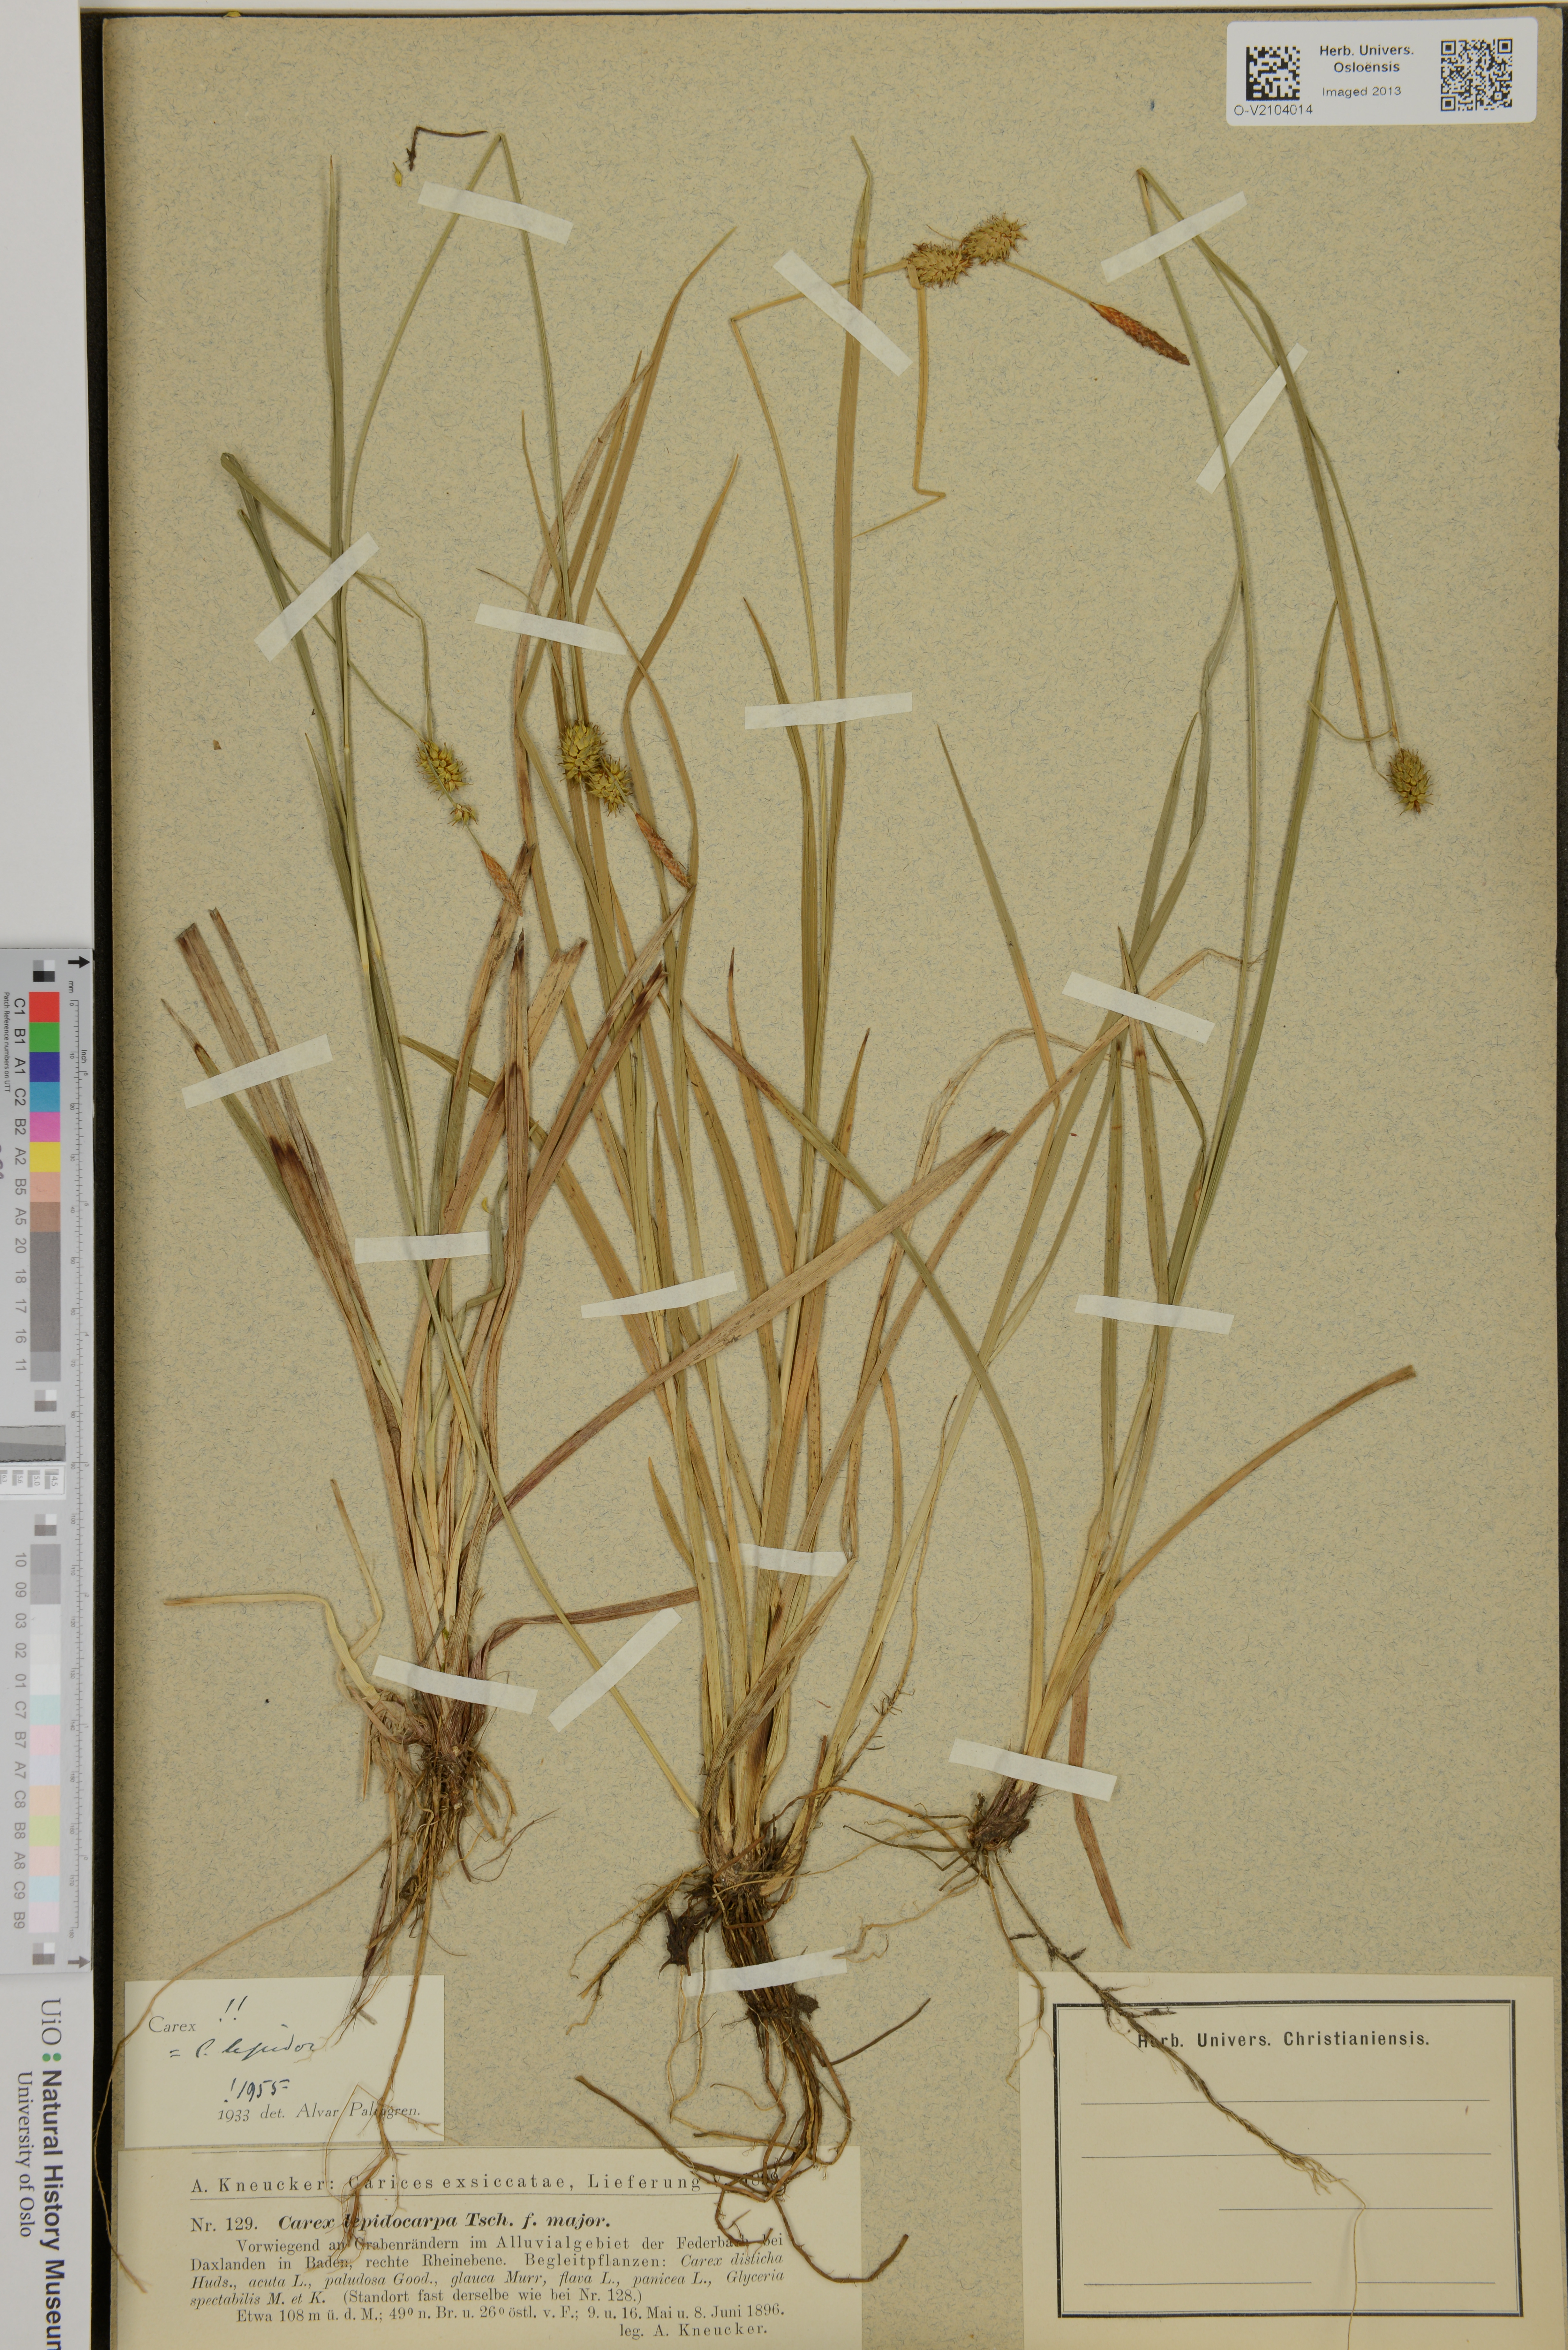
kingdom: Plantae
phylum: Tracheophyta
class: Liliopsida
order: Poales
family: Cyperaceae
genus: Carex
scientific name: Carex lepidocarpa
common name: Long-stalked yellow-sedge
